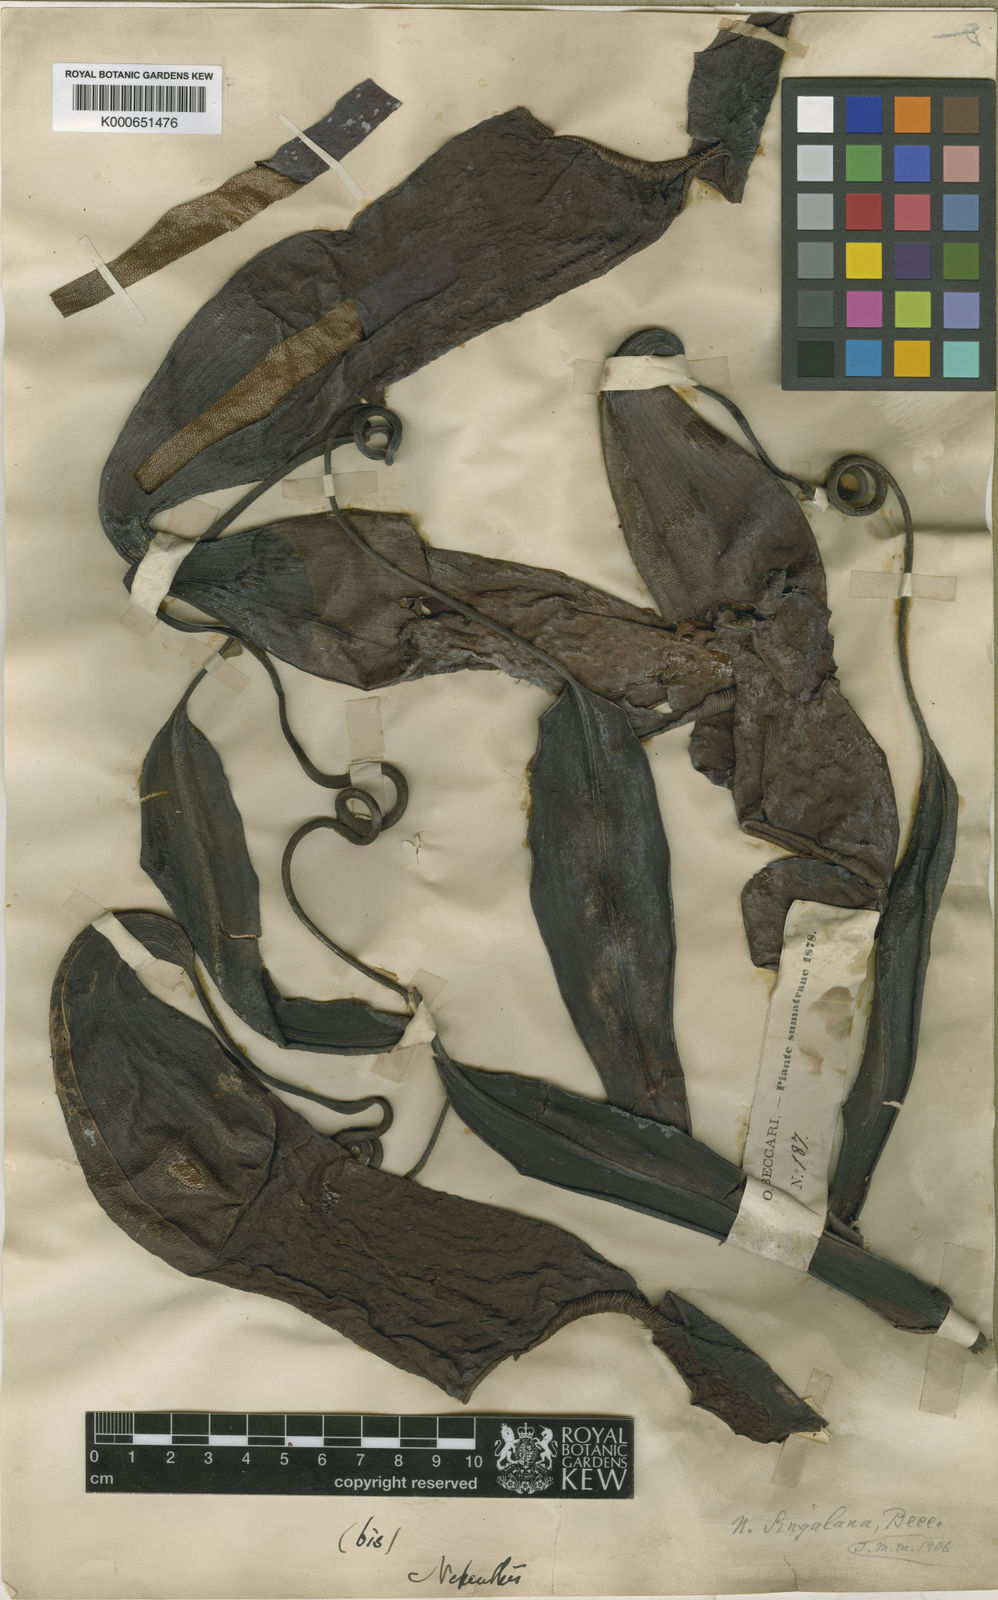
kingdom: Plantae
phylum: Tracheophyta
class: Magnoliopsida
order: Caryophyllales
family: Nepenthaceae
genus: Nepenthes
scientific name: Nepenthes singalana
